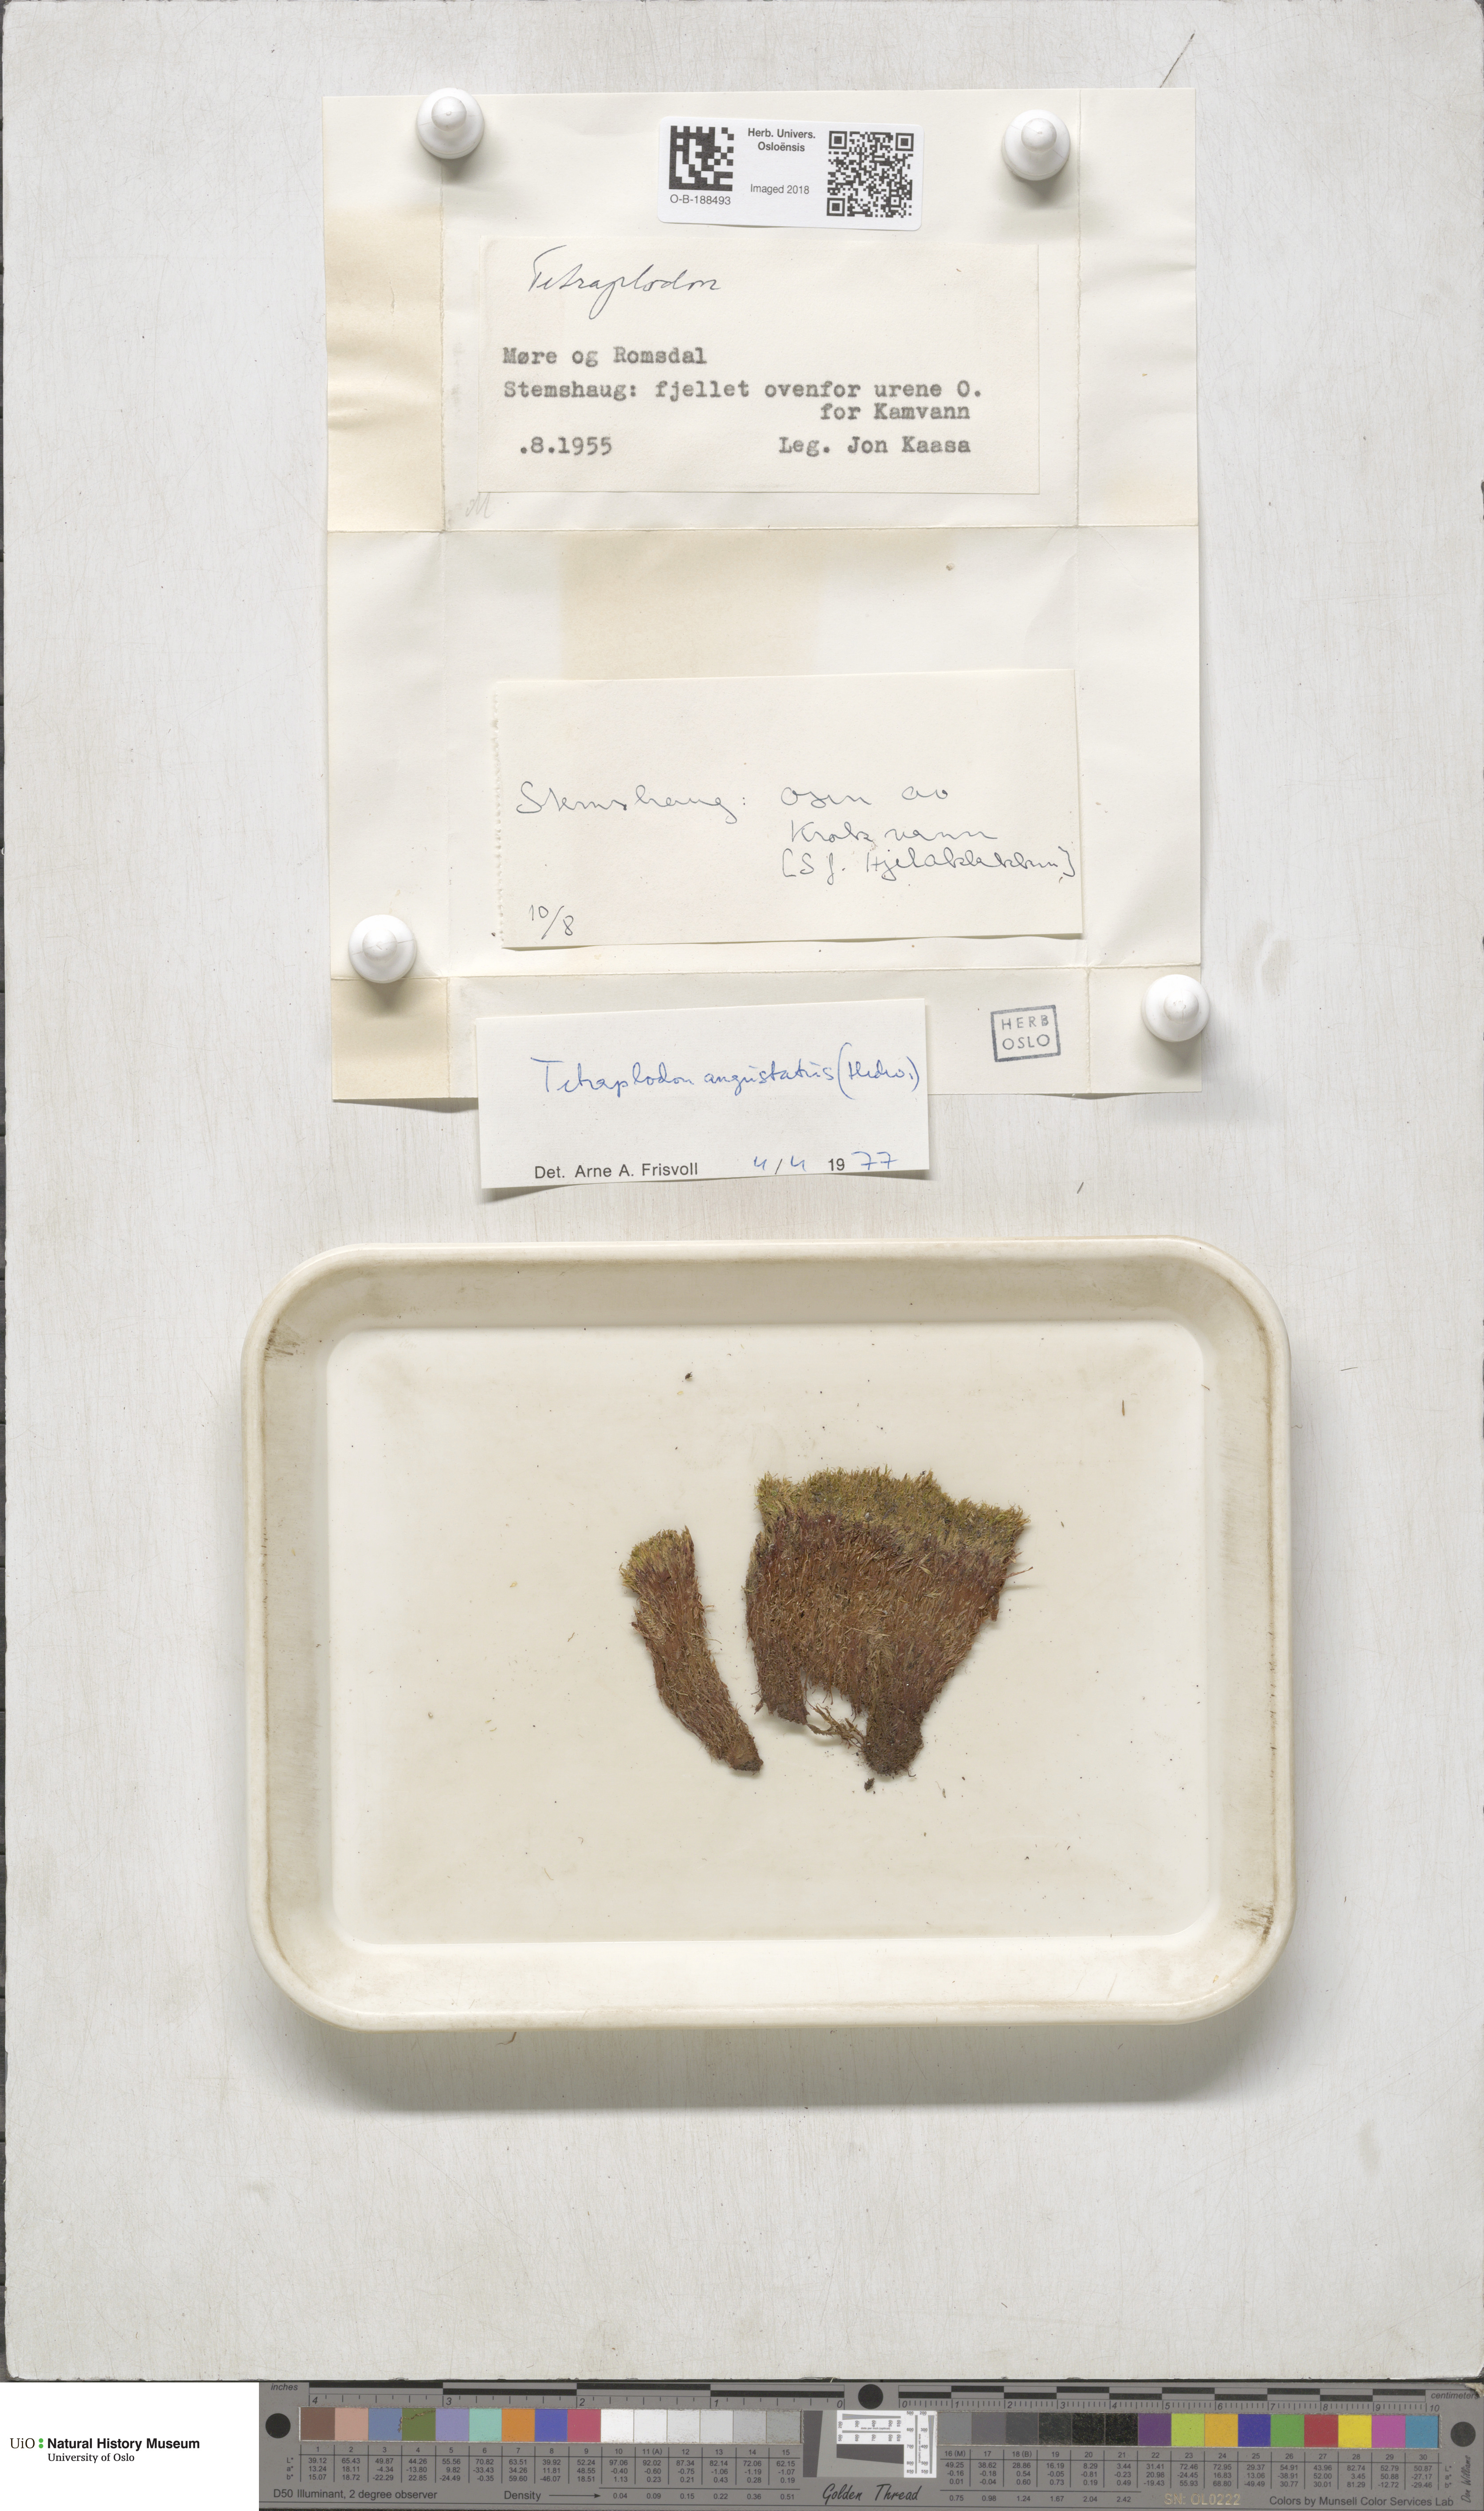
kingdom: Plantae
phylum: Bryophyta
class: Bryopsida
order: Splachnales
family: Splachnaceae
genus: Tetraplodon
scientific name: Tetraplodon angustatus
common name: Narrow cruet-moss
